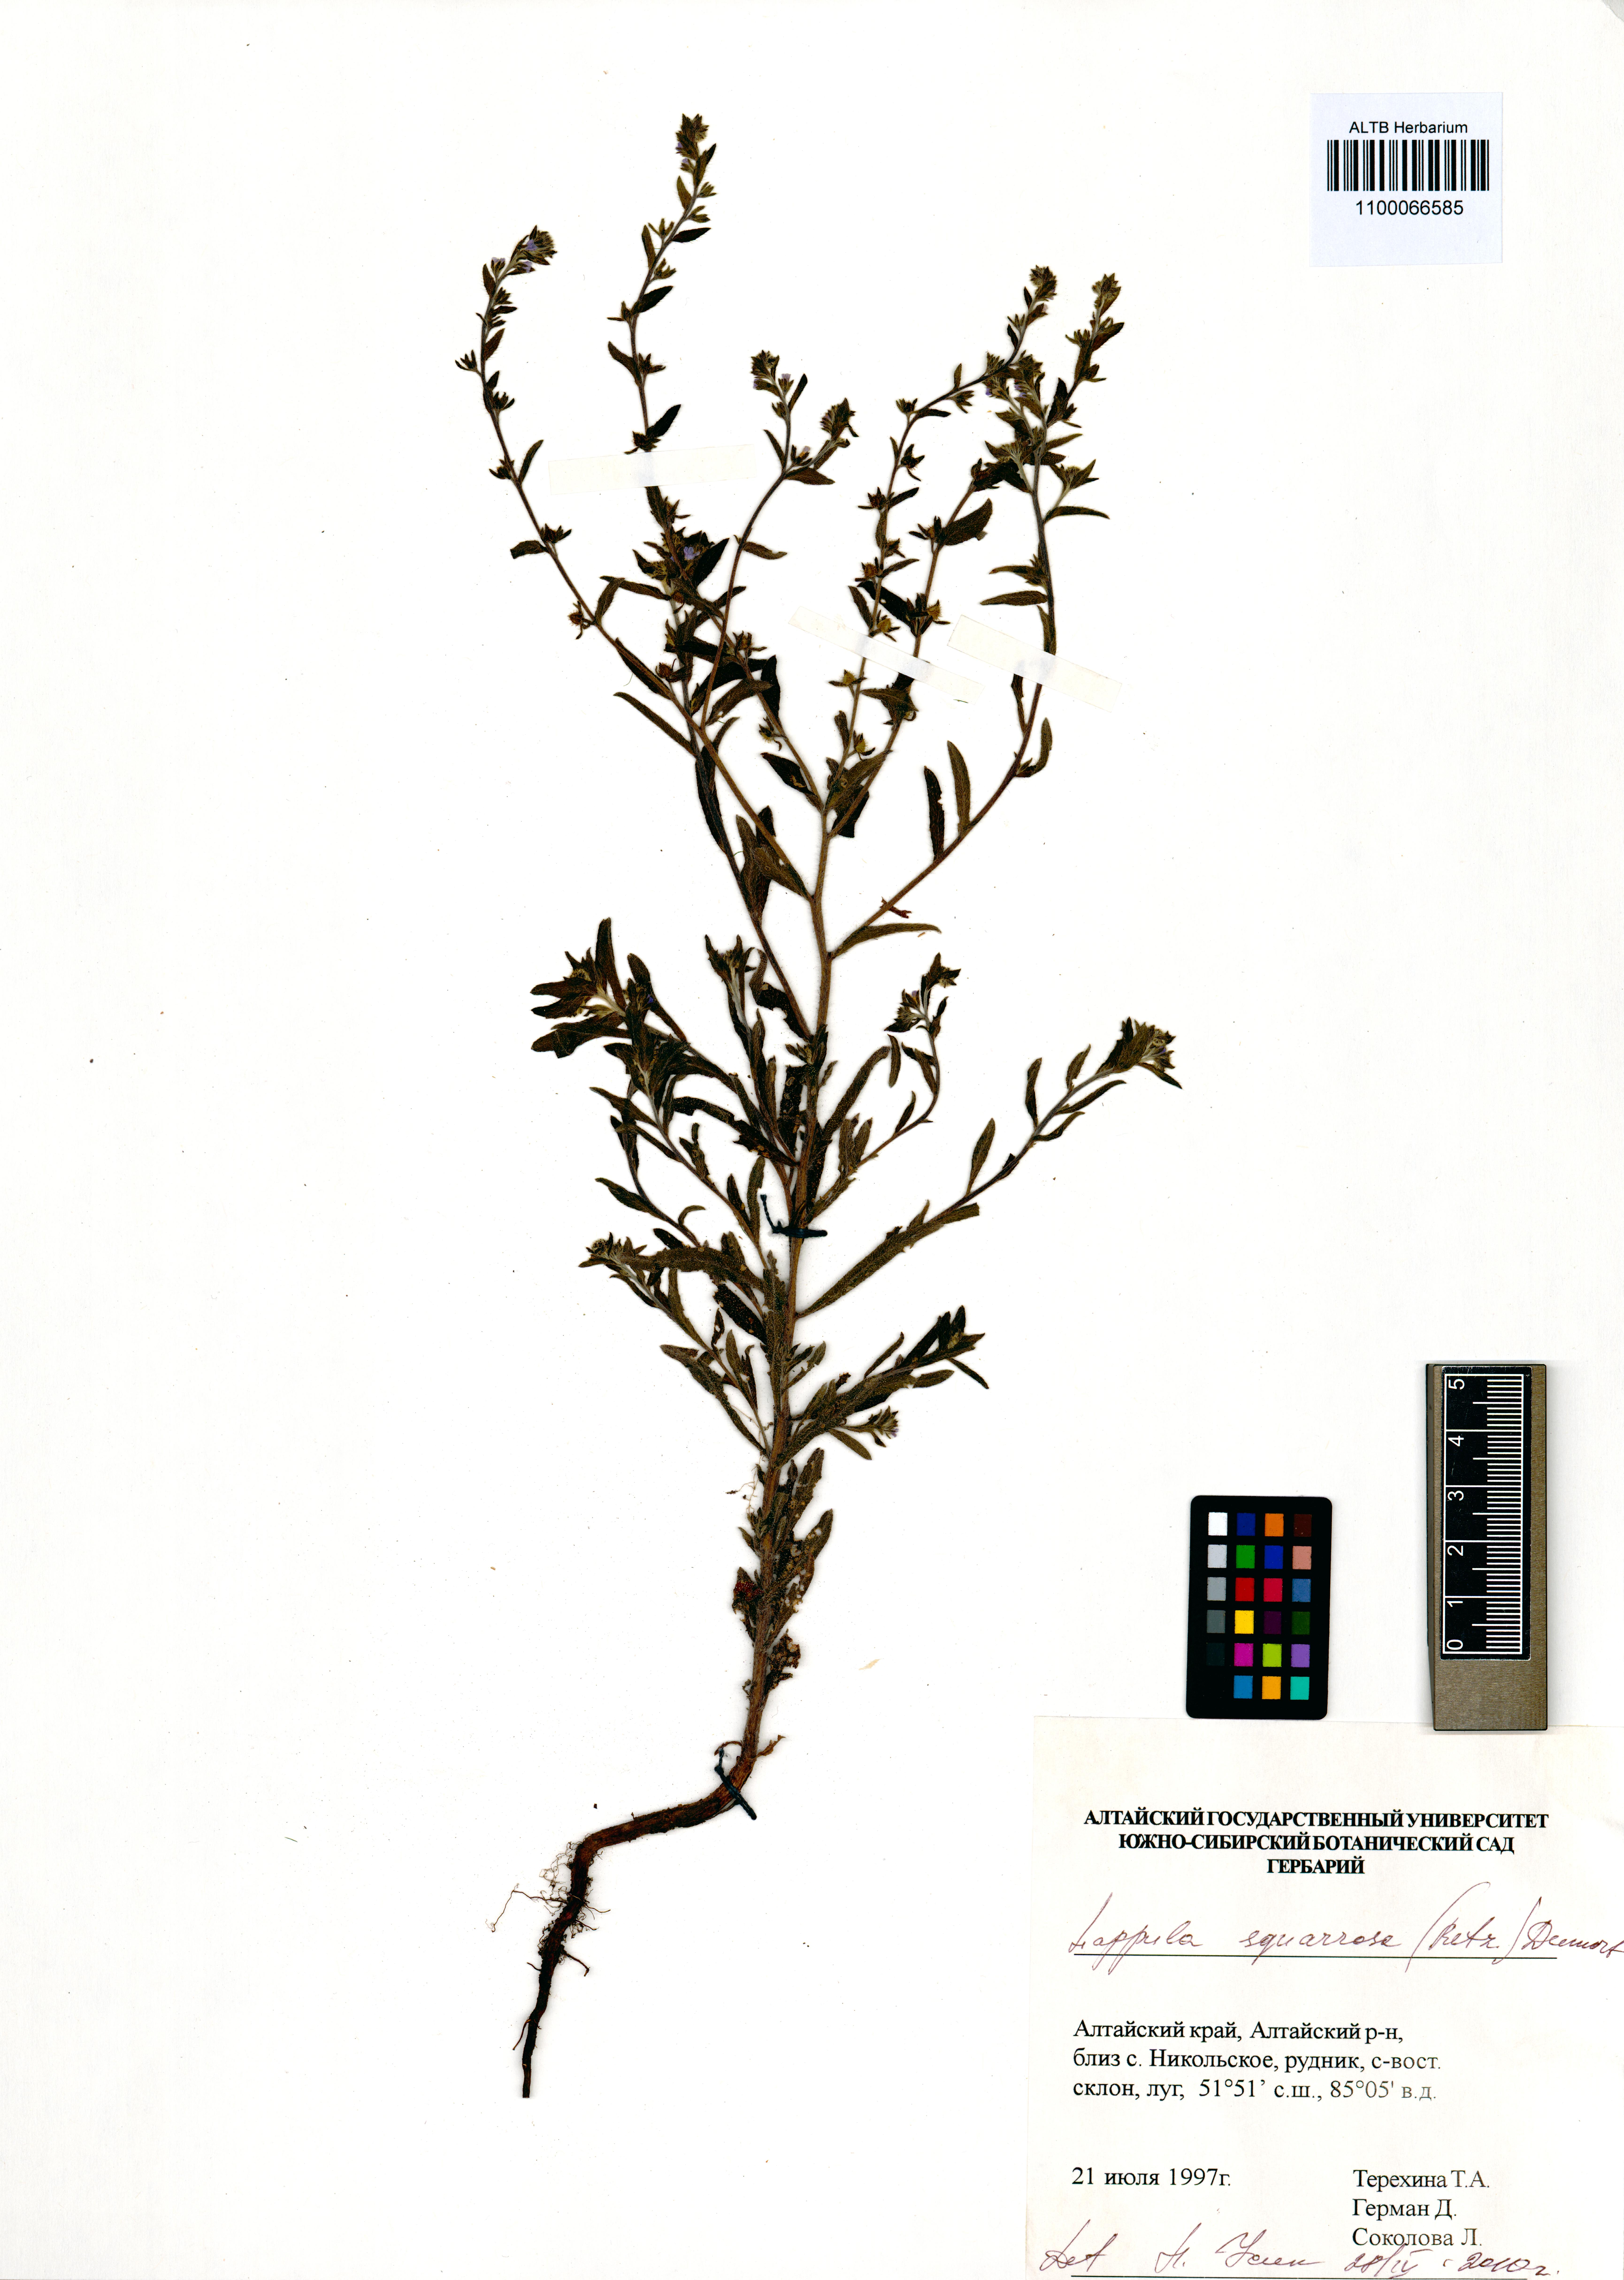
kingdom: Plantae
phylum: Tracheophyta
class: Magnoliopsida
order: Boraginales
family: Boraginaceae
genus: Lappula
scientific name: Lappula squarrosa
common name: European stickseed
